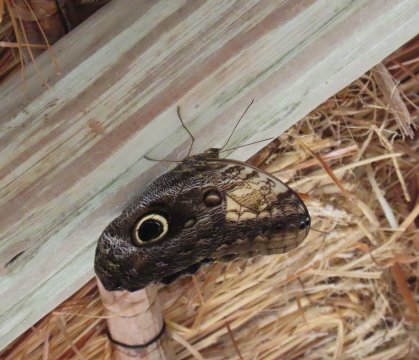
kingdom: Animalia
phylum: Arthropoda
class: Insecta
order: Lepidoptera
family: Nymphalidae
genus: Caligo
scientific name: Caligo telamonius
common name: Pale Owl-Butterfly
